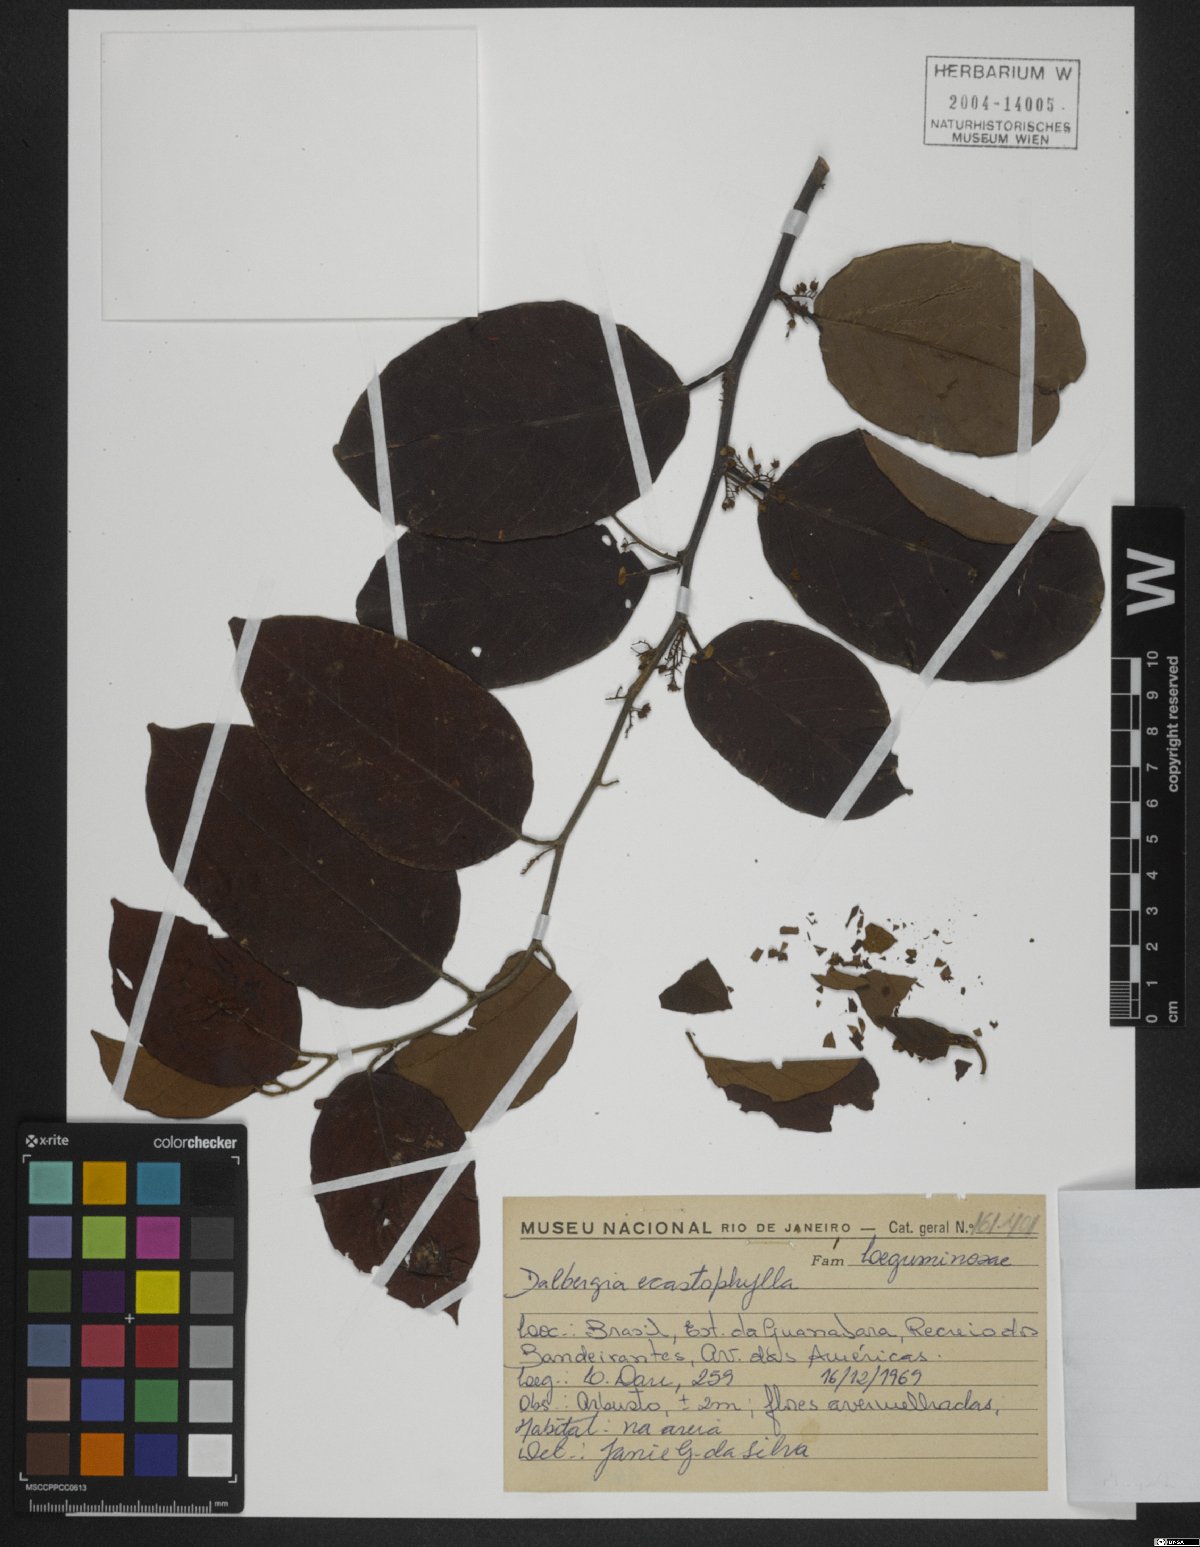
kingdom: Plantae
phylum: Tracheophyta
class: Magnoliopsida
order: Fabales
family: Fabaceae
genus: Dalbergia
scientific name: Dalbergia ecastaphyllum
